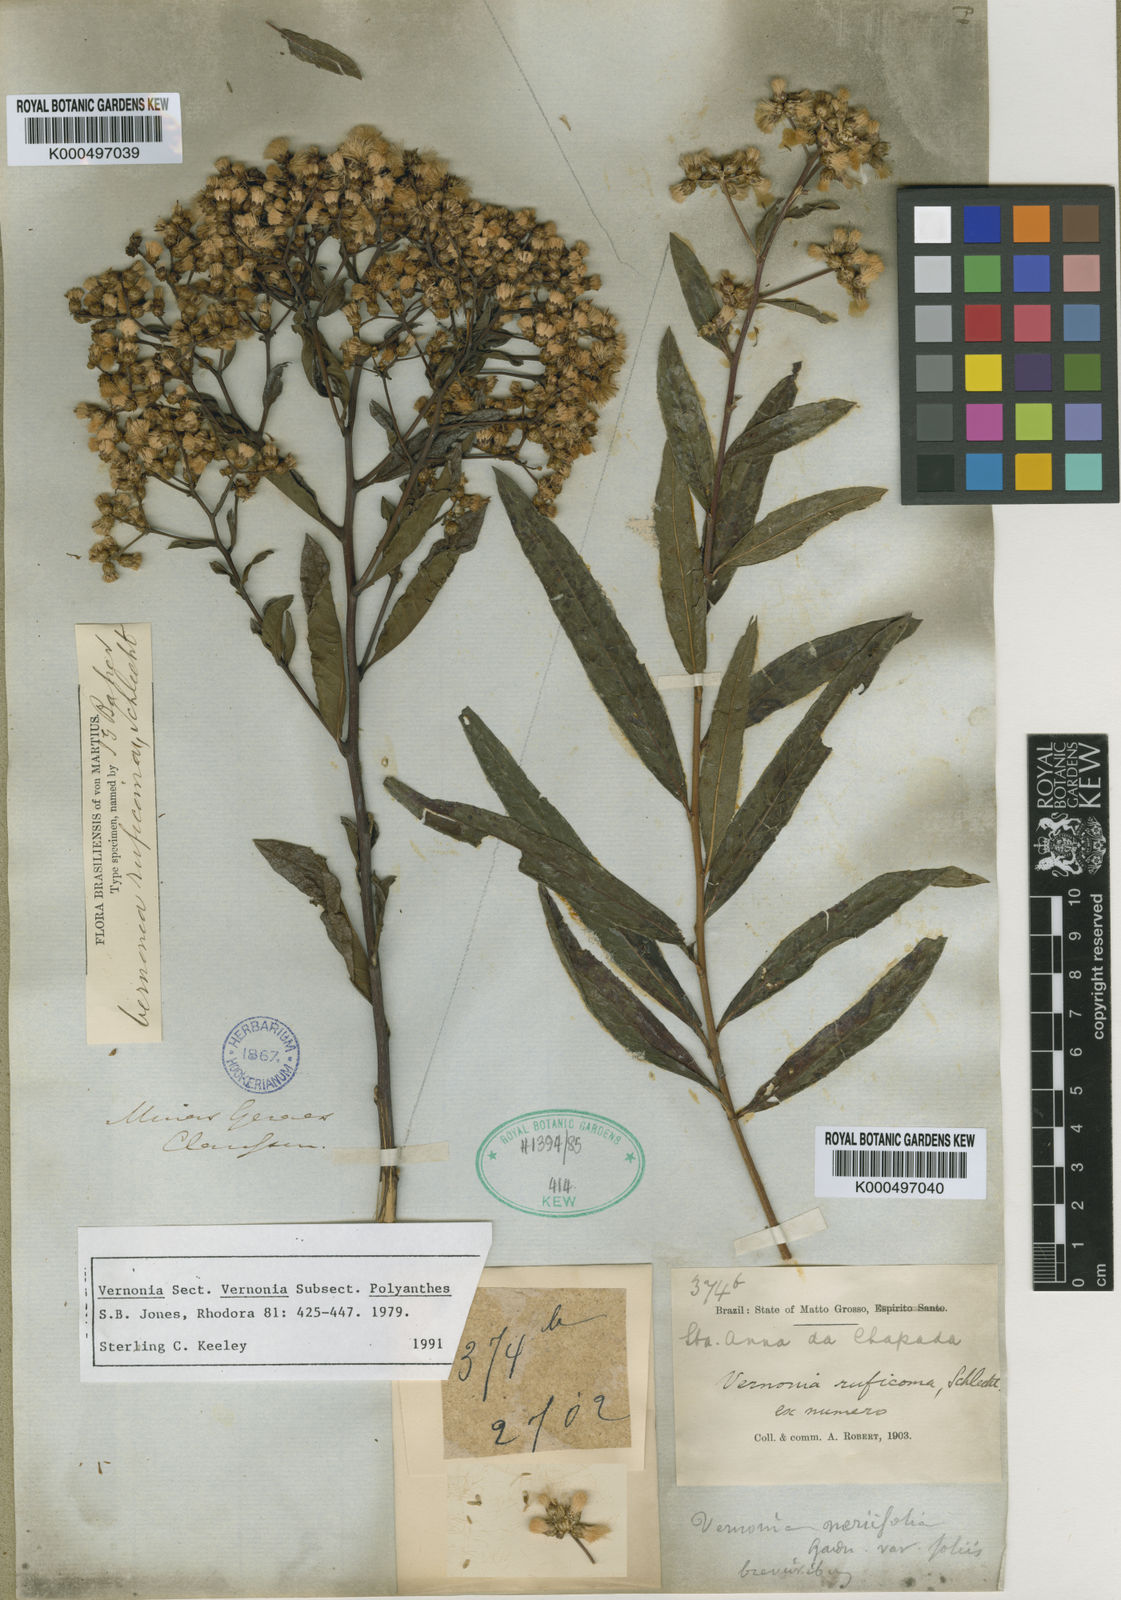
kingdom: Plantae
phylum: Tracheophyta
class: Magnoliopsida
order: Asterales
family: Asteraceae
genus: Vernonia
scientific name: Vernonia
